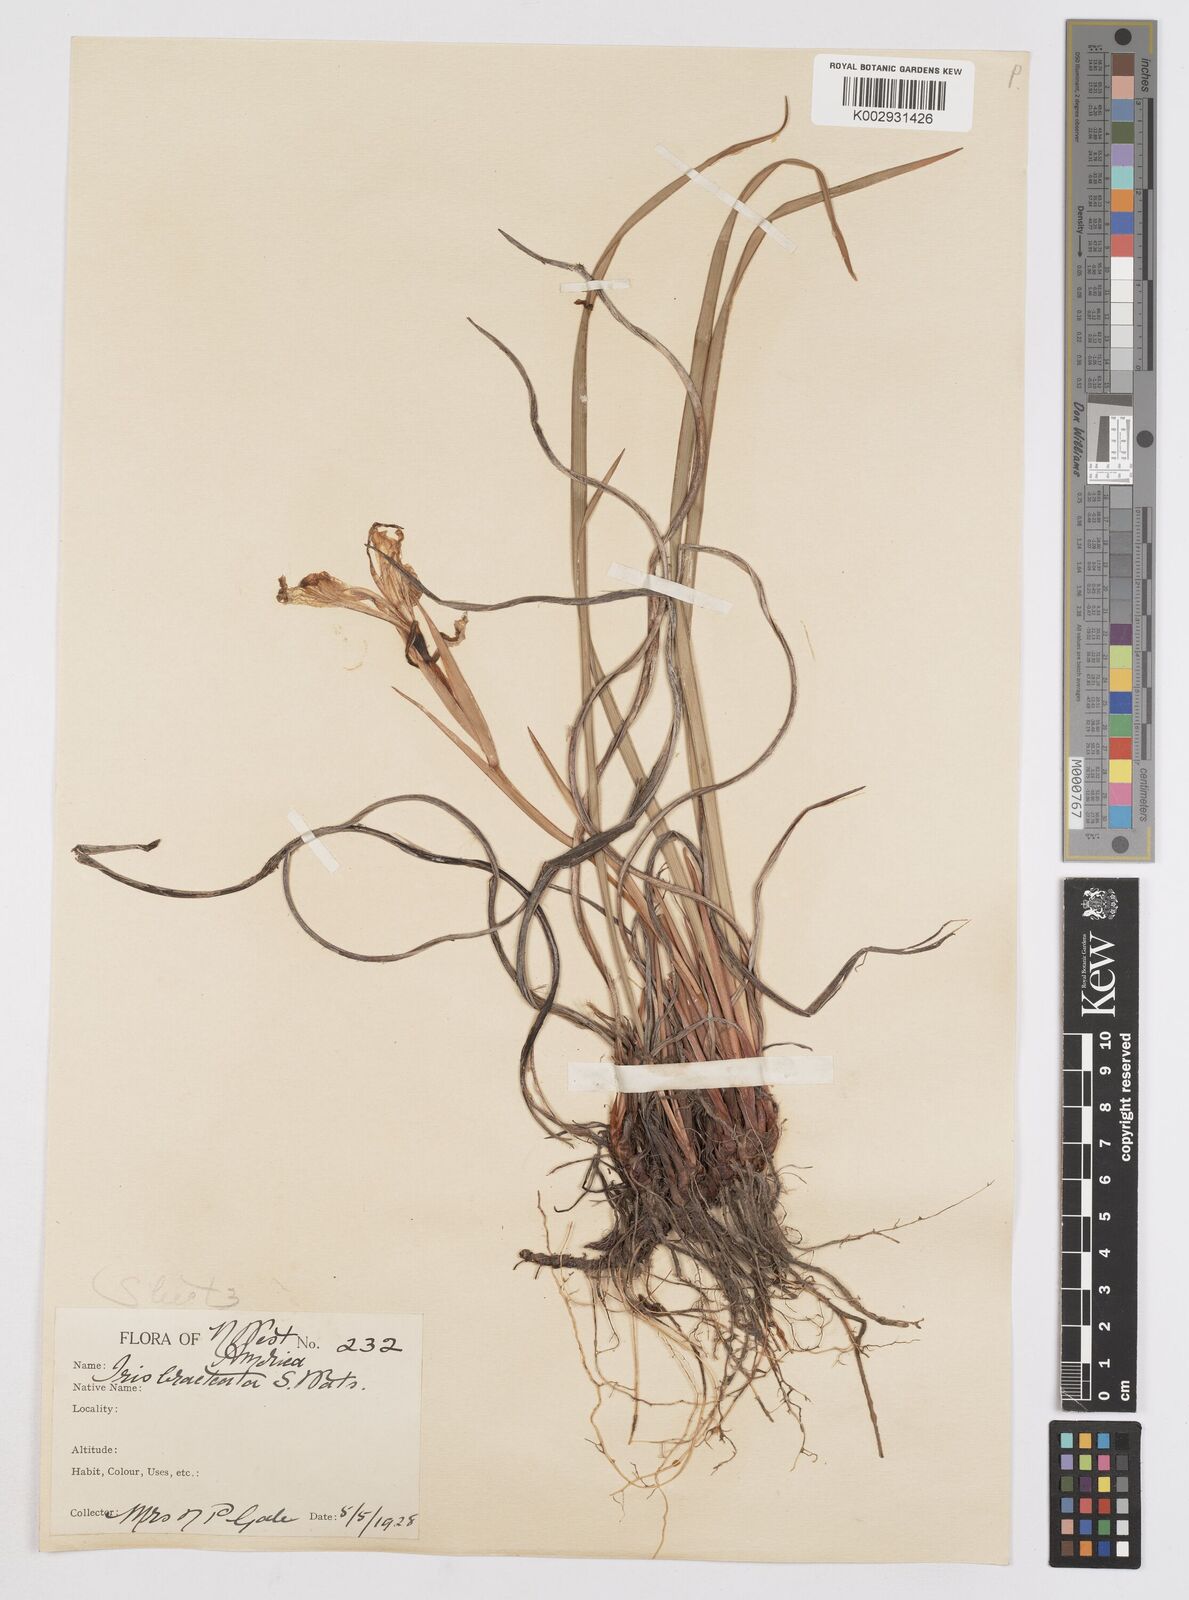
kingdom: Plantae
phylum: Tracheophyta
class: Liliopsida
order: Asparagales
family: Iridaceae
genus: Iris
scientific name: Iris bracteata
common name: Siskiyou iris
